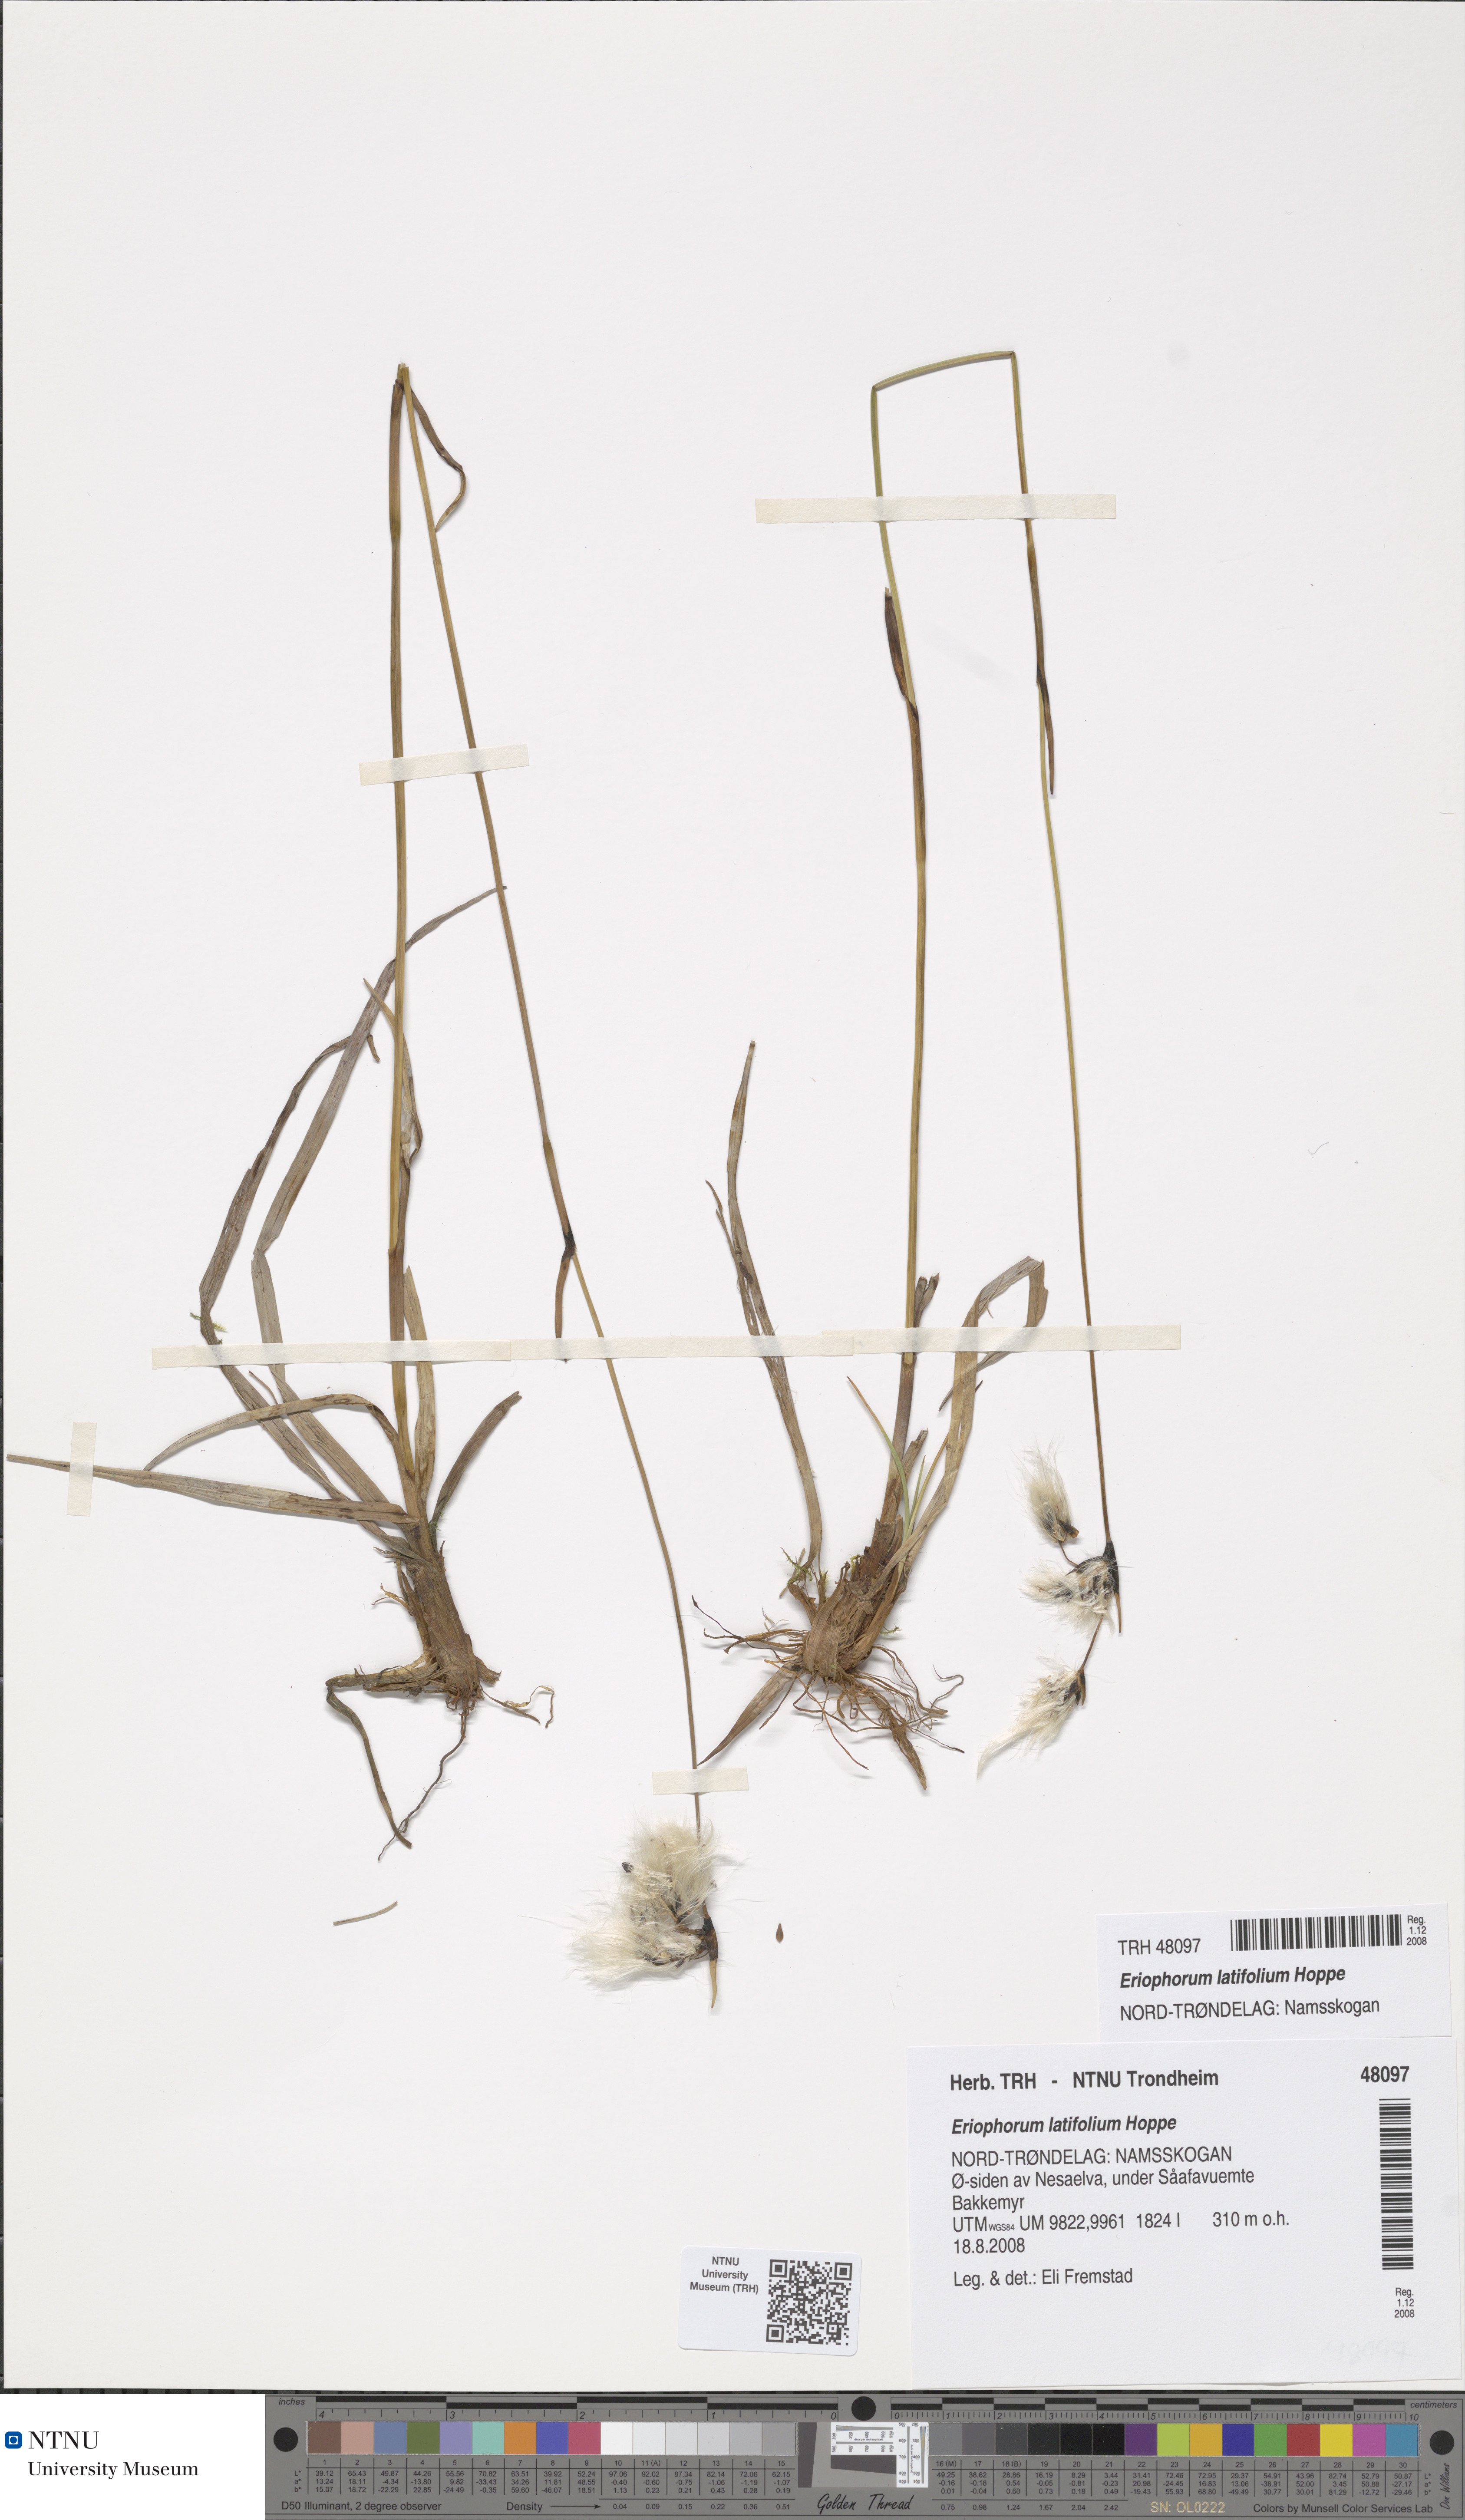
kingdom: Plantae
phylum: Tracheophyta
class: Liliopsida
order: Poales
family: Cyperaceae
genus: Eriophorum
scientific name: Eriophorum latifolium
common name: Broad-leaved cottongrass
